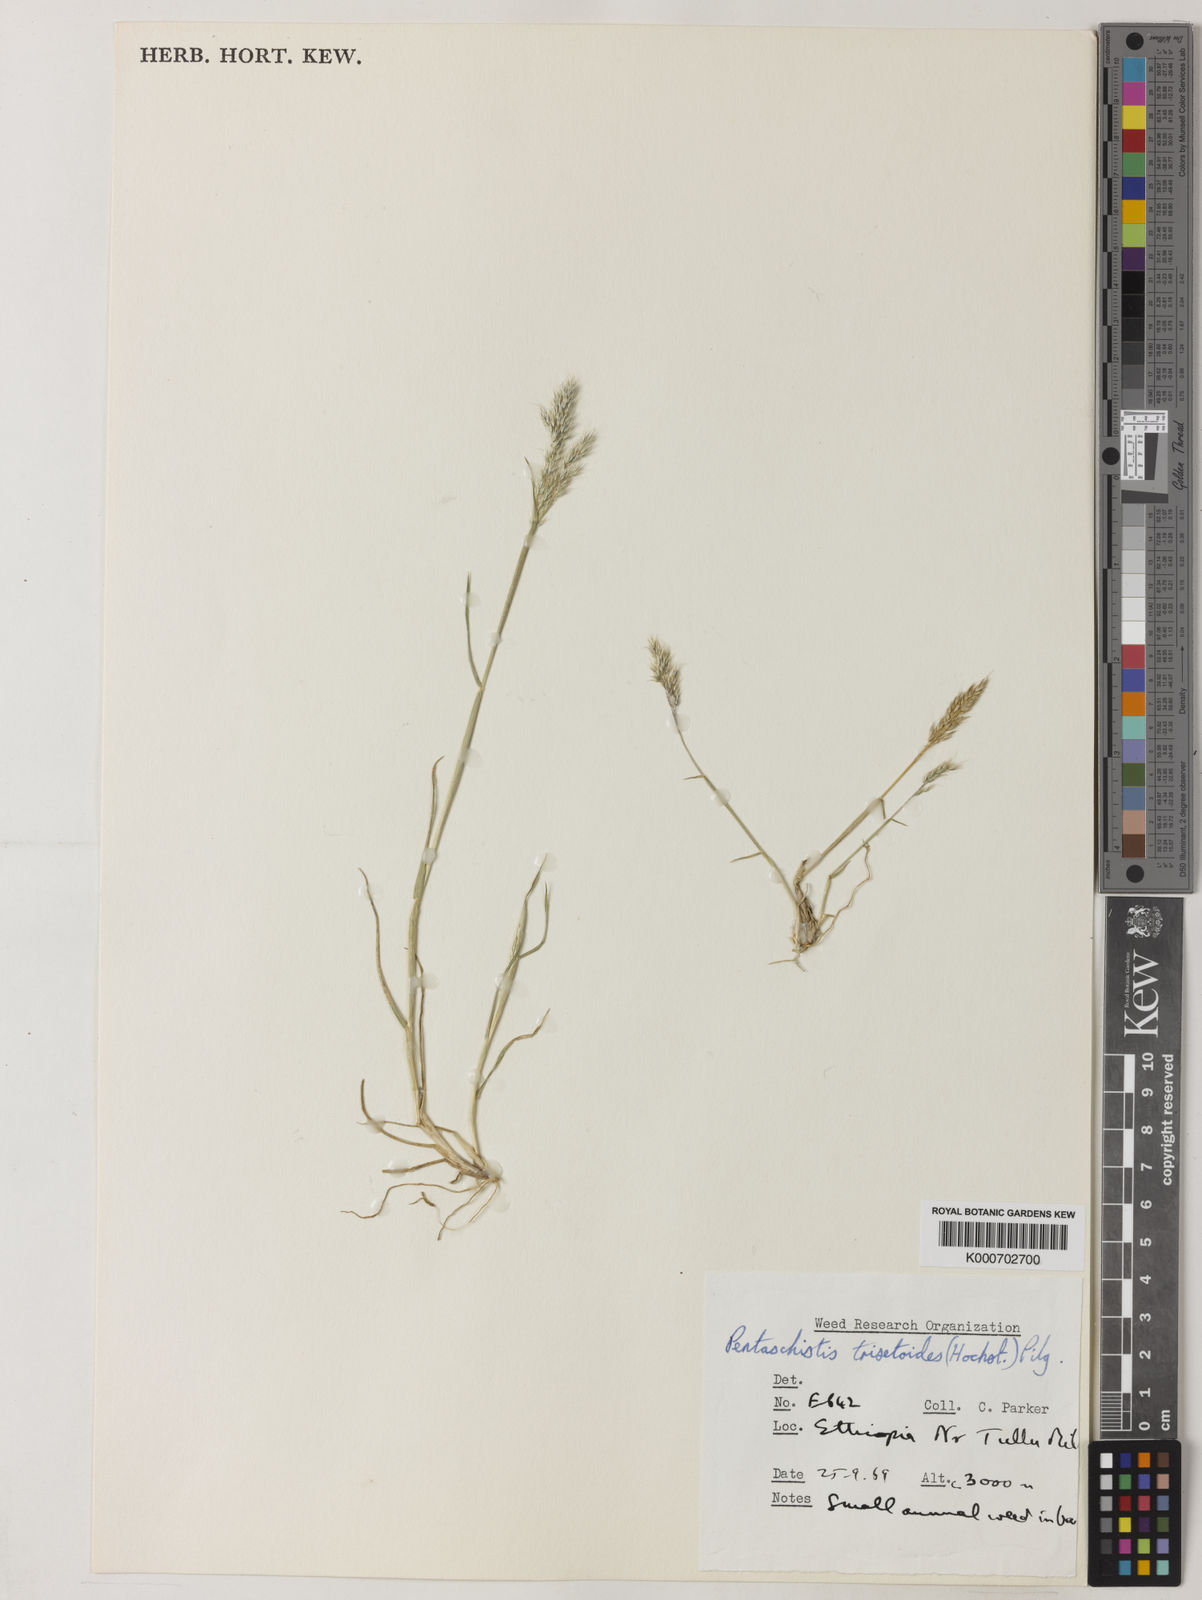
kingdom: Plantae
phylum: Tracheophyta
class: Liliopsida
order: Poales
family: Poaceae
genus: Pentaschistis
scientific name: Pentaschistis
